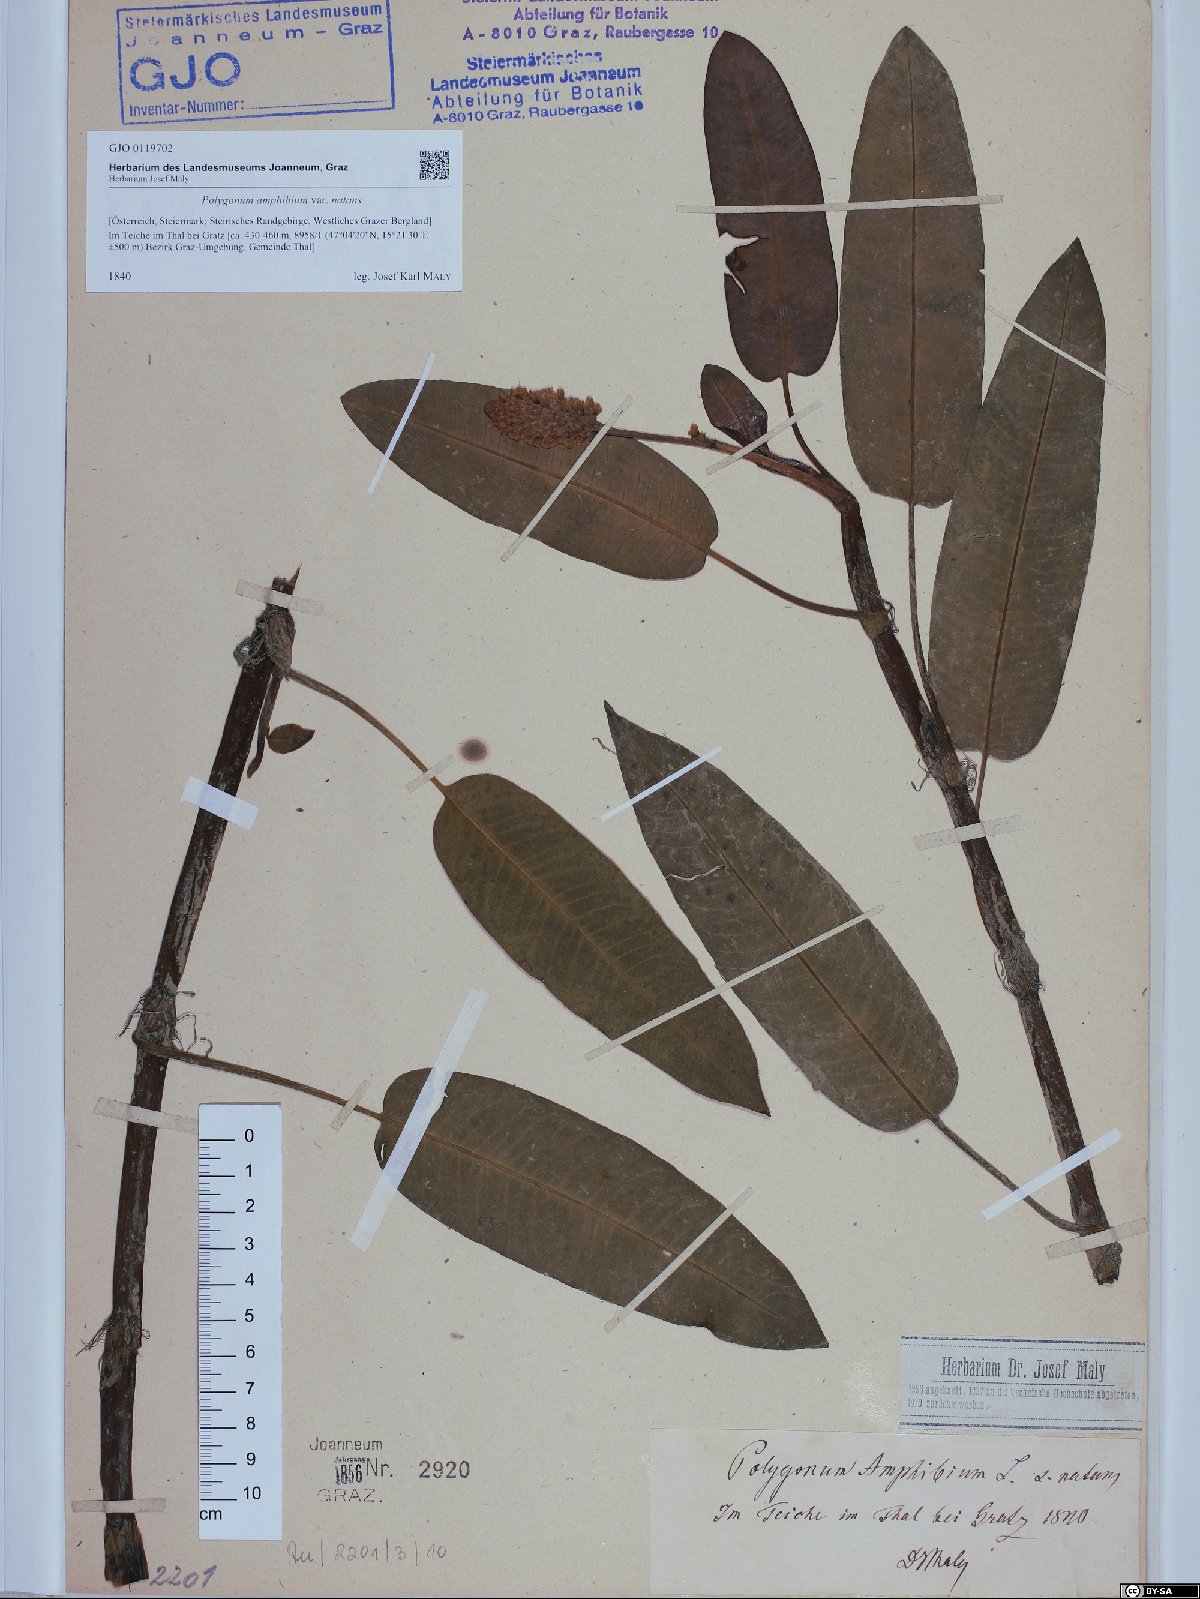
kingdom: Plantae
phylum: Tracheophyta
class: Magnoliopsida
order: Caryophyllales
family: Polygonaceae
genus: Persicaria
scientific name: Persicaria amphibia
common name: Amphibious bistort
